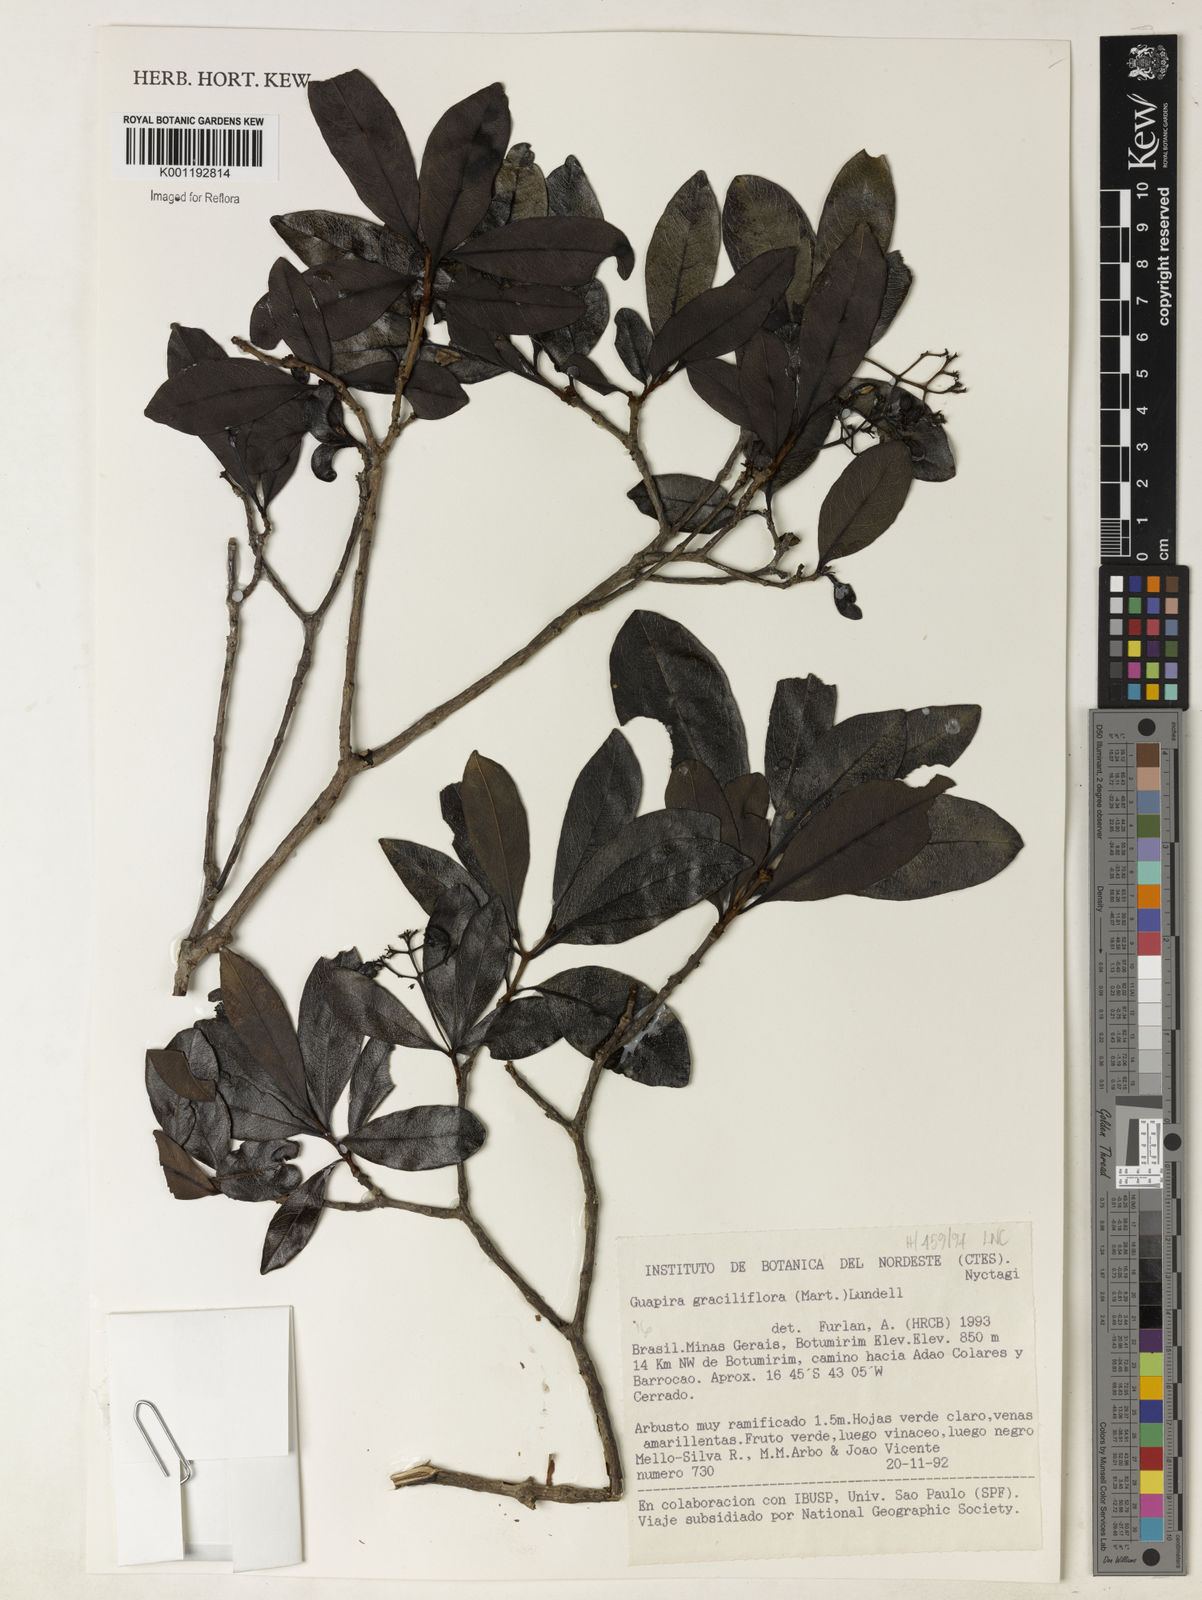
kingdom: Plantae
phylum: Tracheophyta
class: Magnoliopsida
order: Caryophyllales
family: Nyctaginaceae
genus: Guapira
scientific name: Guapira graciliflora
